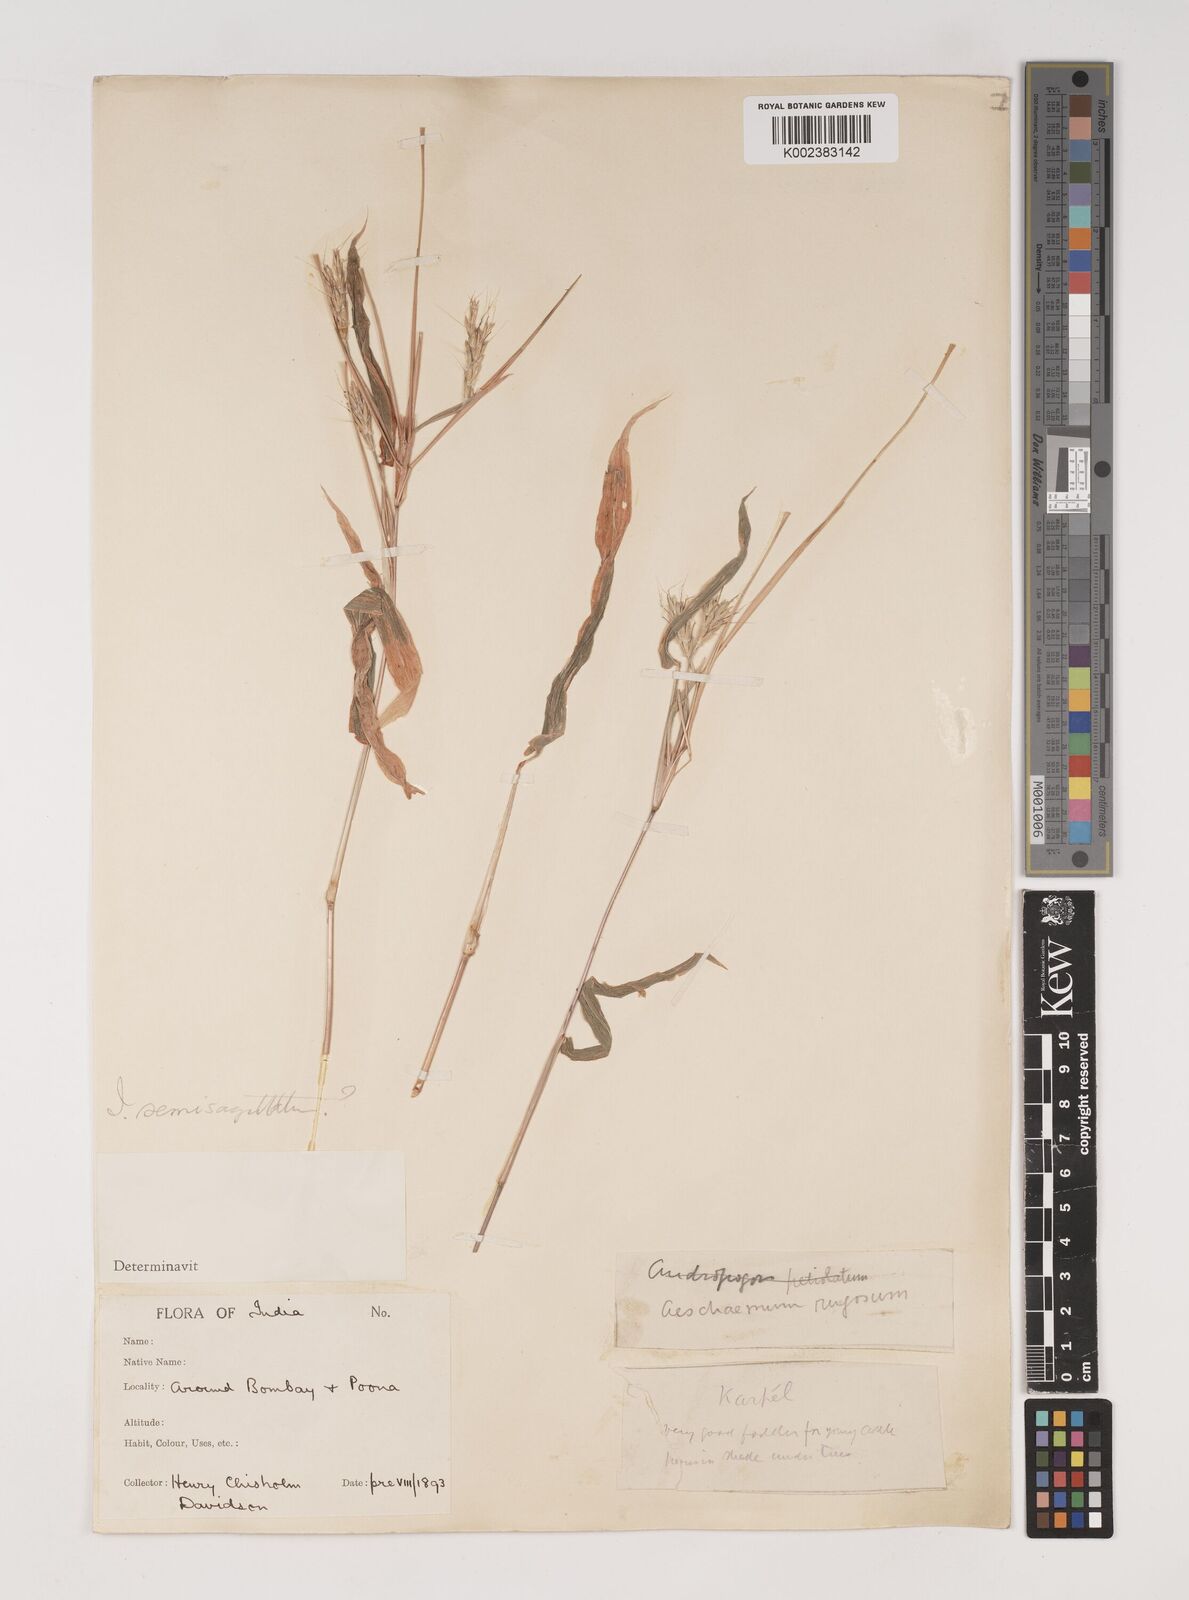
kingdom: Plantae
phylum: Tracheophyta
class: Liliopsida
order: Poales
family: Poaceae
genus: Ischaemum
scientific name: Ischaemum semisagittatum
